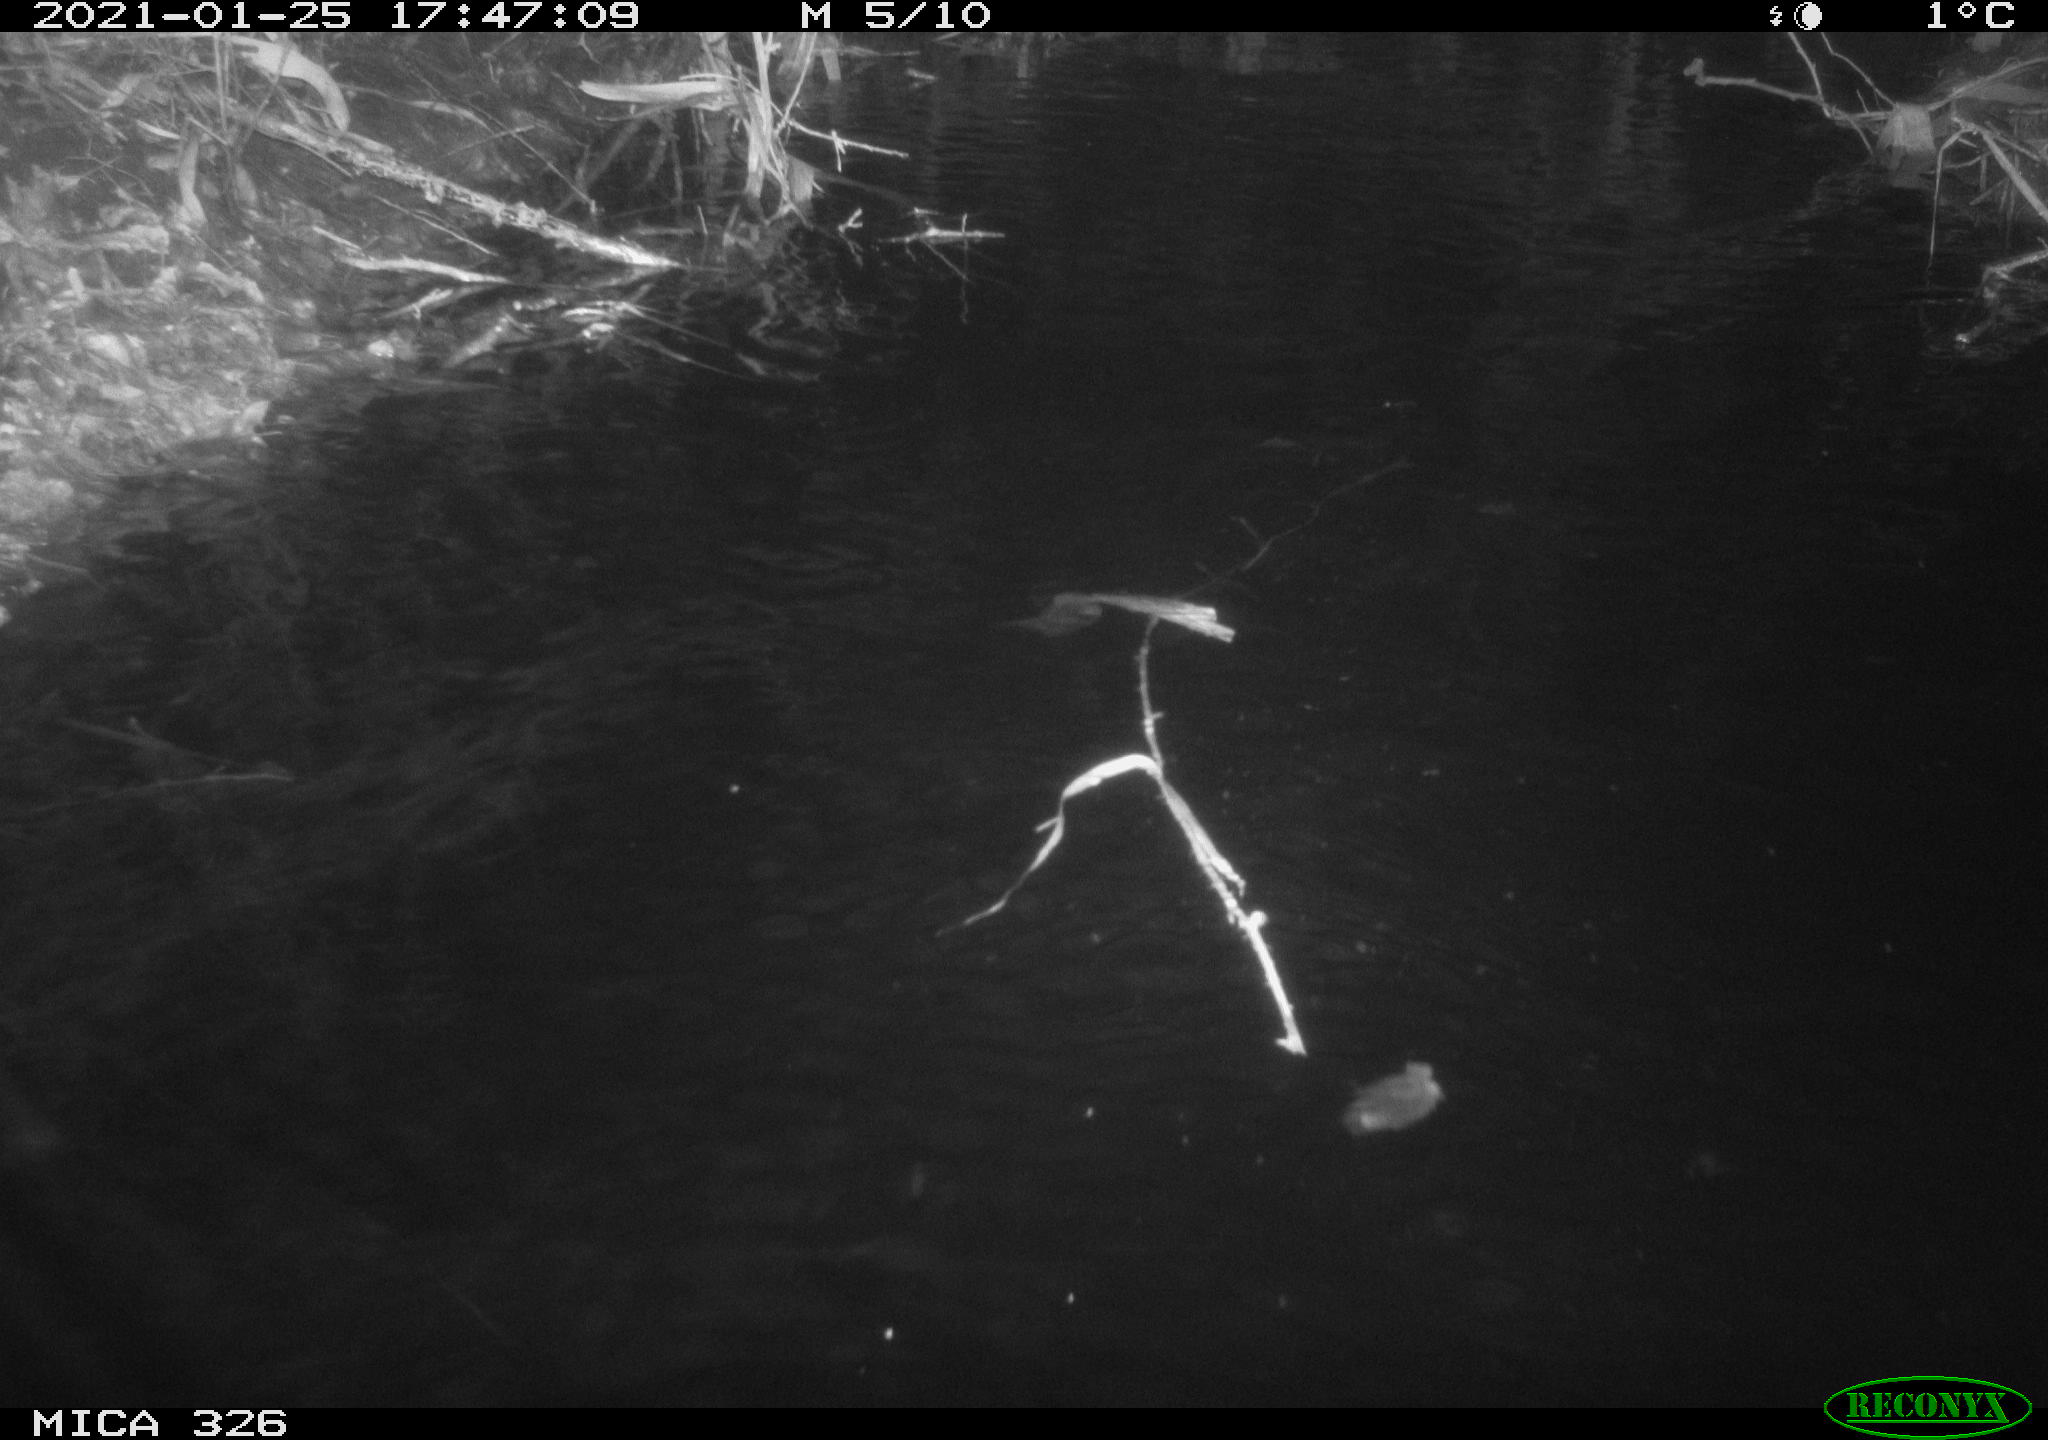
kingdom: Animalia
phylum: Chordata
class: Mammalia
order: Rodentia
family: Myocastoridae
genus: Myocastor
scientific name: Myocastor coypus
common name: Coypu
